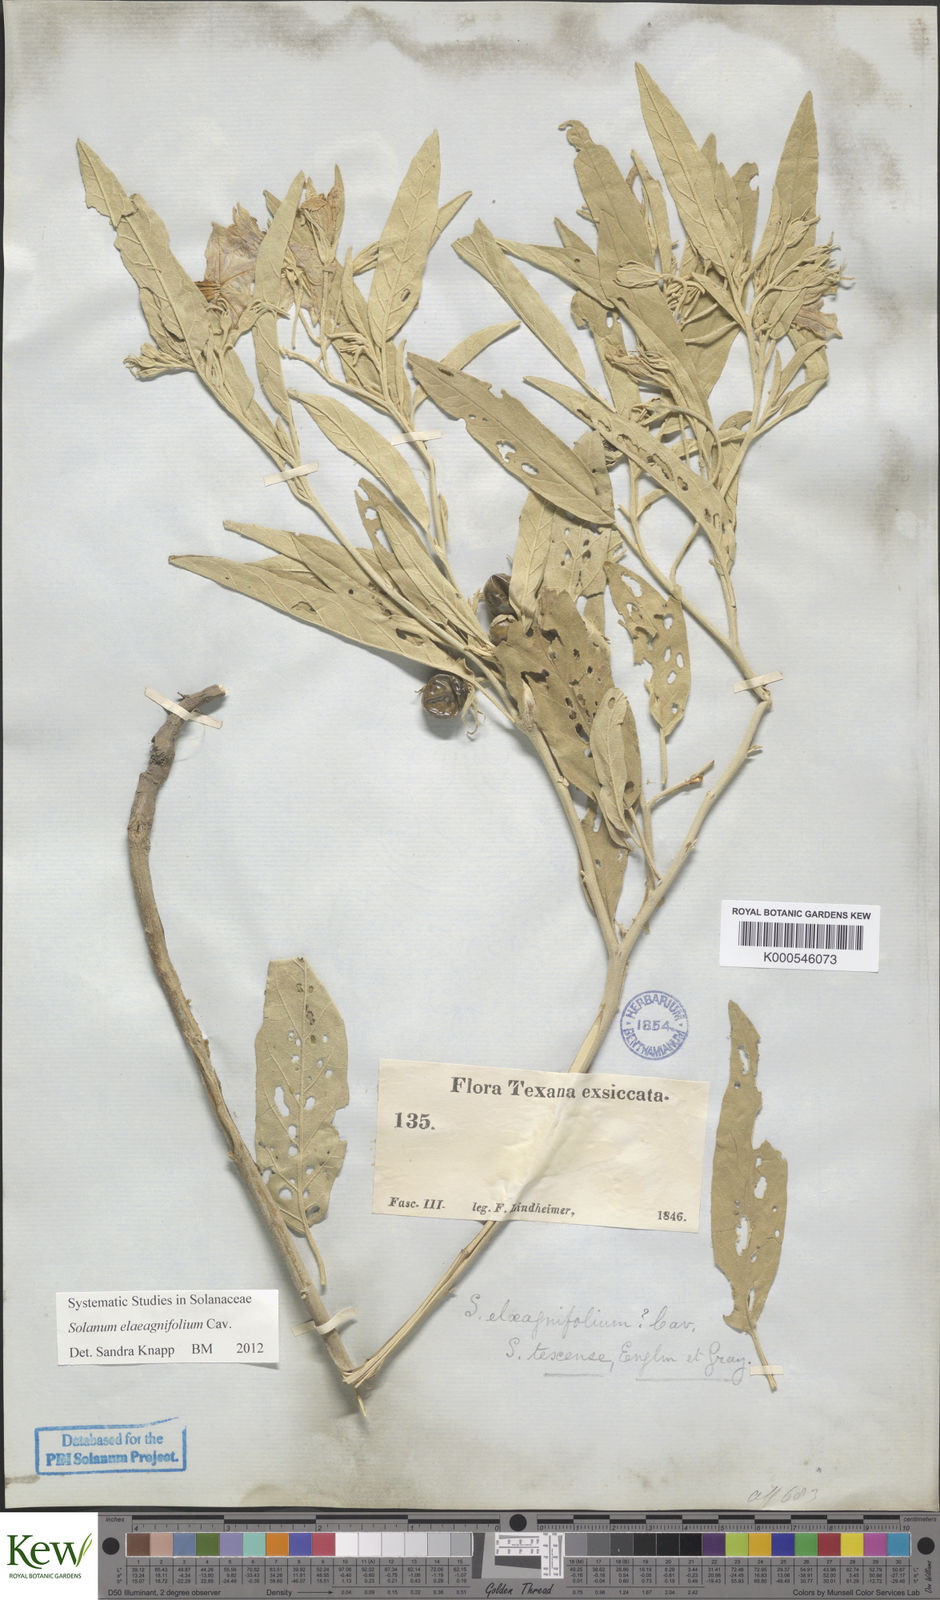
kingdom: Plantae
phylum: Tracheophyta
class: Magnoliopsida
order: Solanales
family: Solanaceae
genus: Solanum
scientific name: Solanum elaeagnifolium
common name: Silverleaf nightshade
